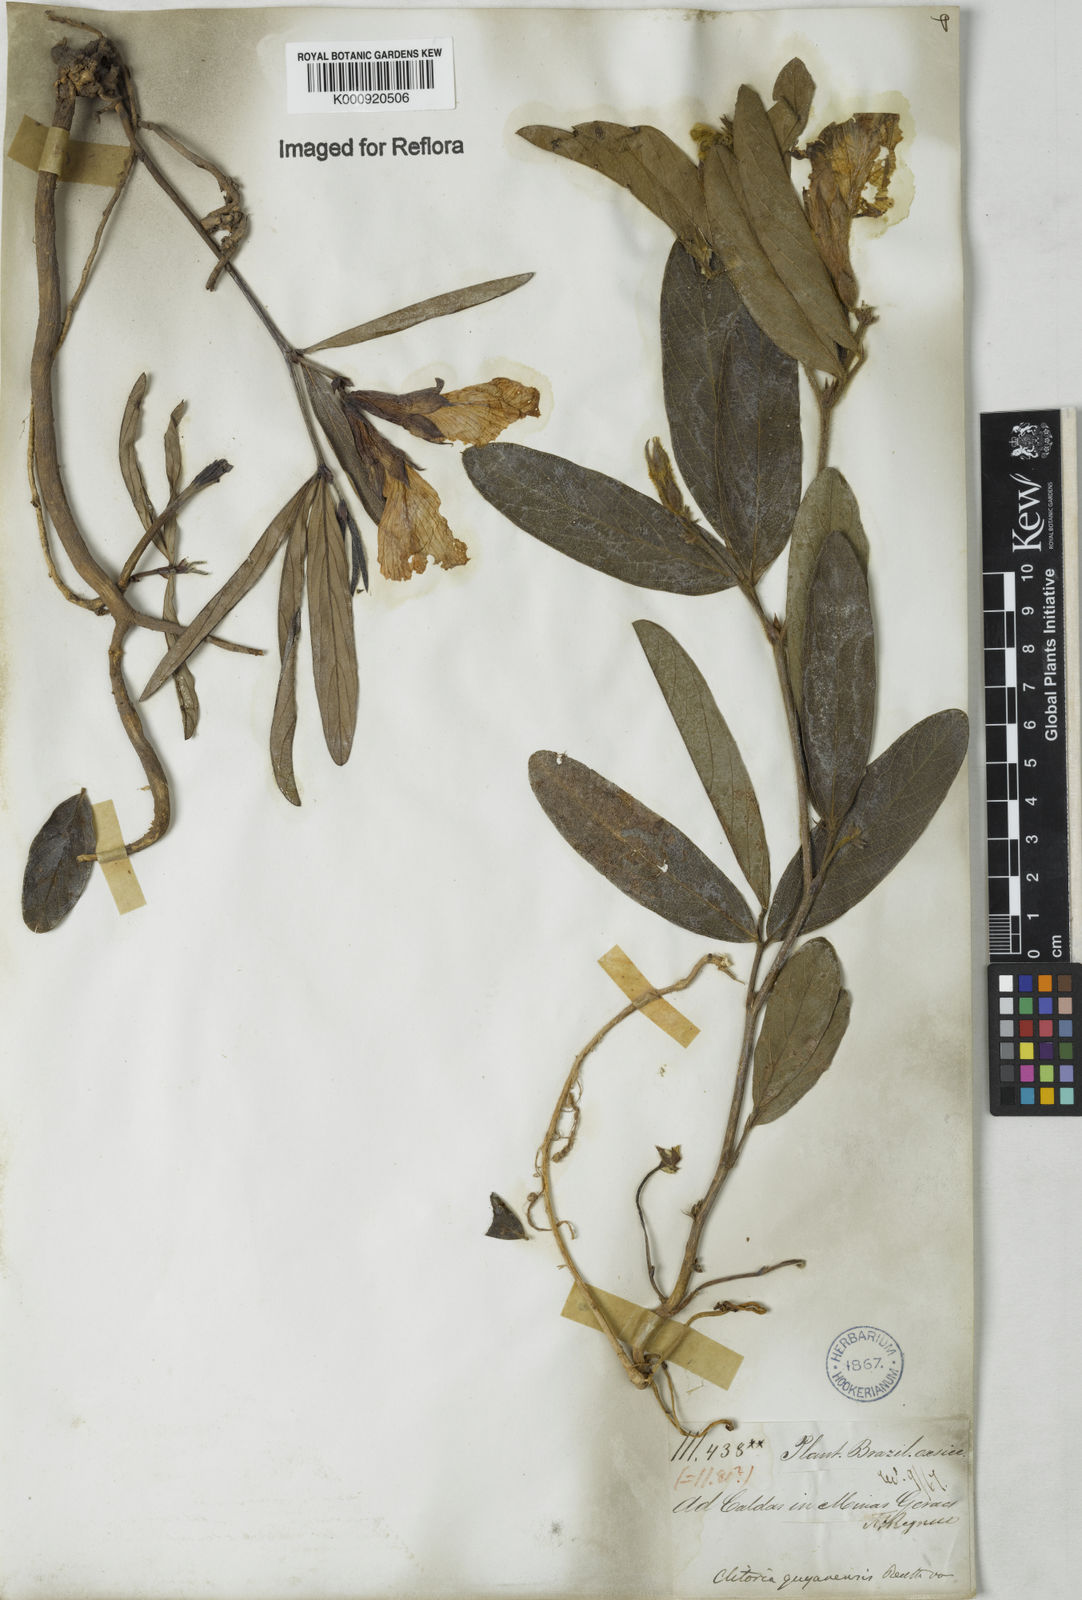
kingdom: Plantae
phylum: Tracheophyta
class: Magnoliopsida
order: Fabales
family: Fabaceae
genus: Clitoria
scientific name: Clitoria guianensis
